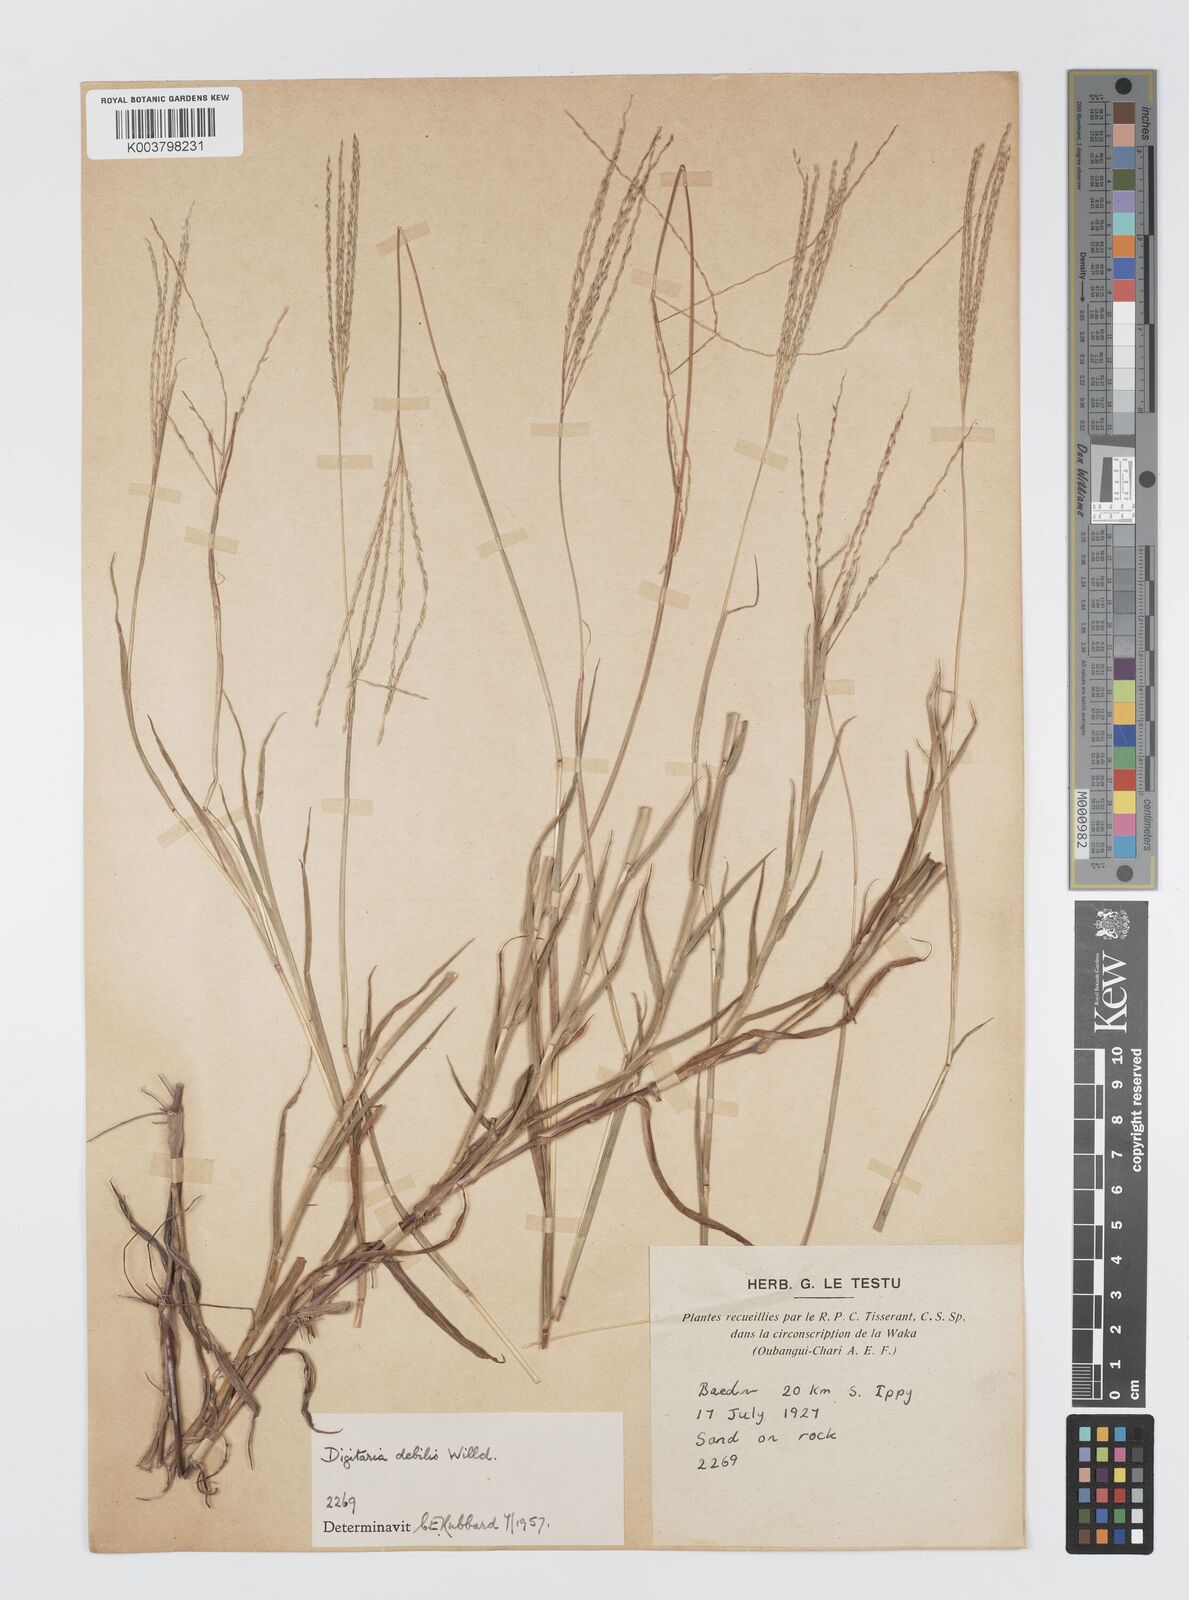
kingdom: Plantae
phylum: Tracheophyta
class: Liliopsida
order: Poales
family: Poaceae
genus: Digitaria
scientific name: Digitaria debilis
